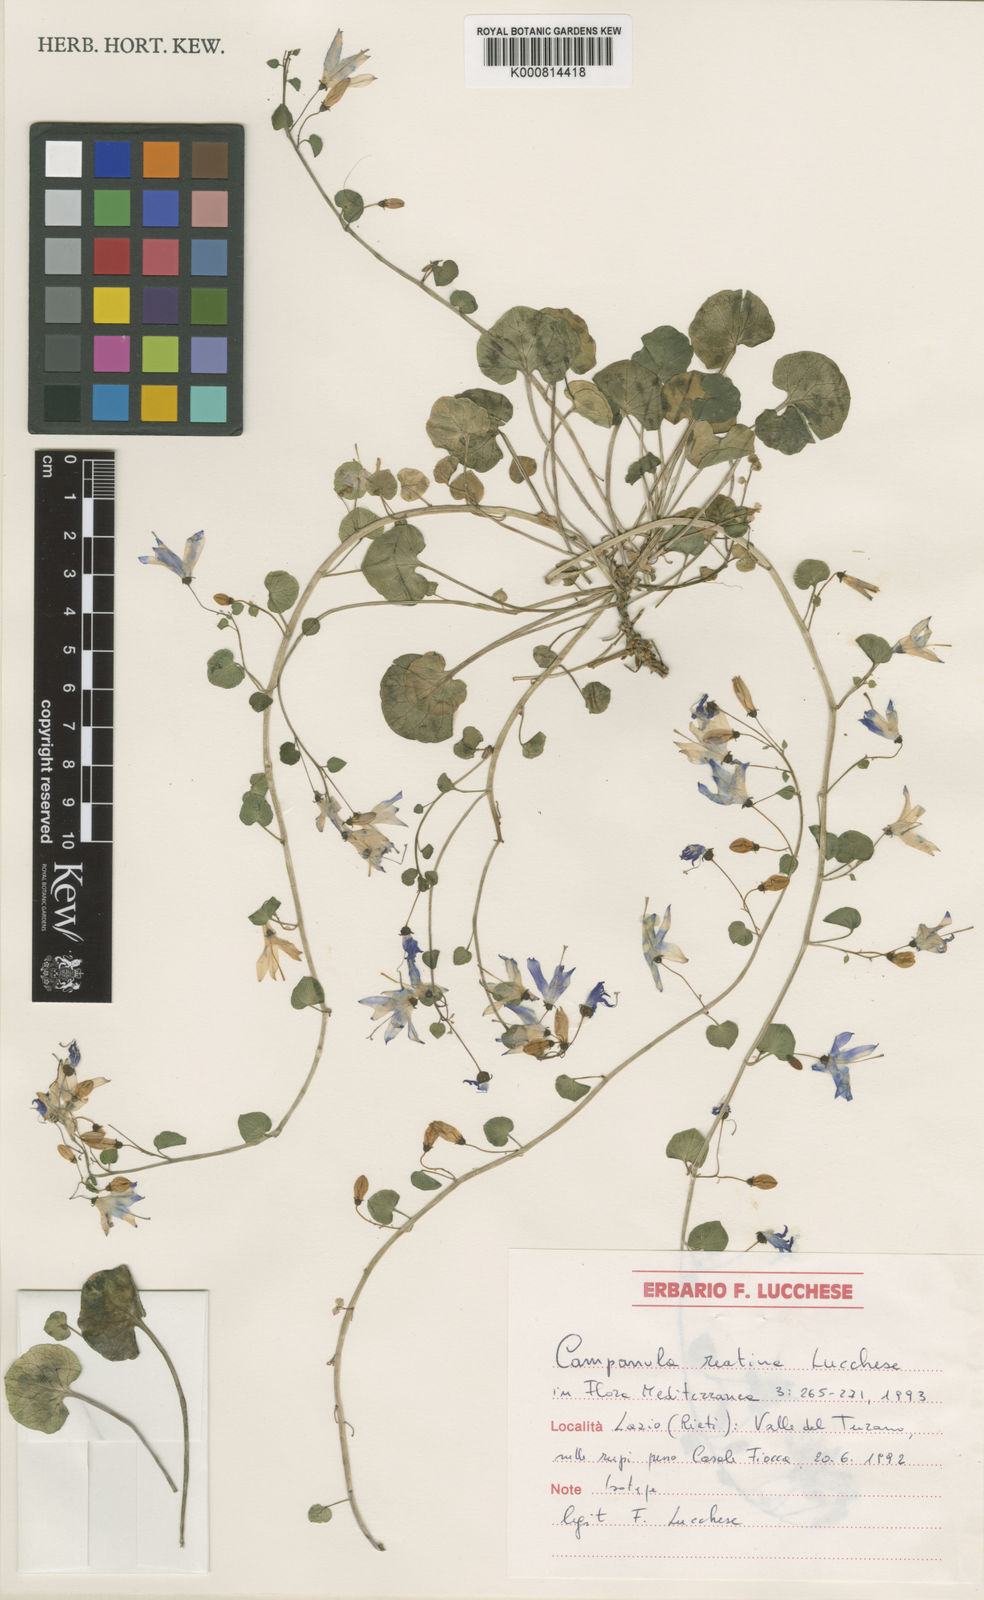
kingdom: Plantae
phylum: Tracheophyta
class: Magnoliopsida
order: Asterales
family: Campanulaceae
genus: Campanula
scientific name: Campanula reatina
